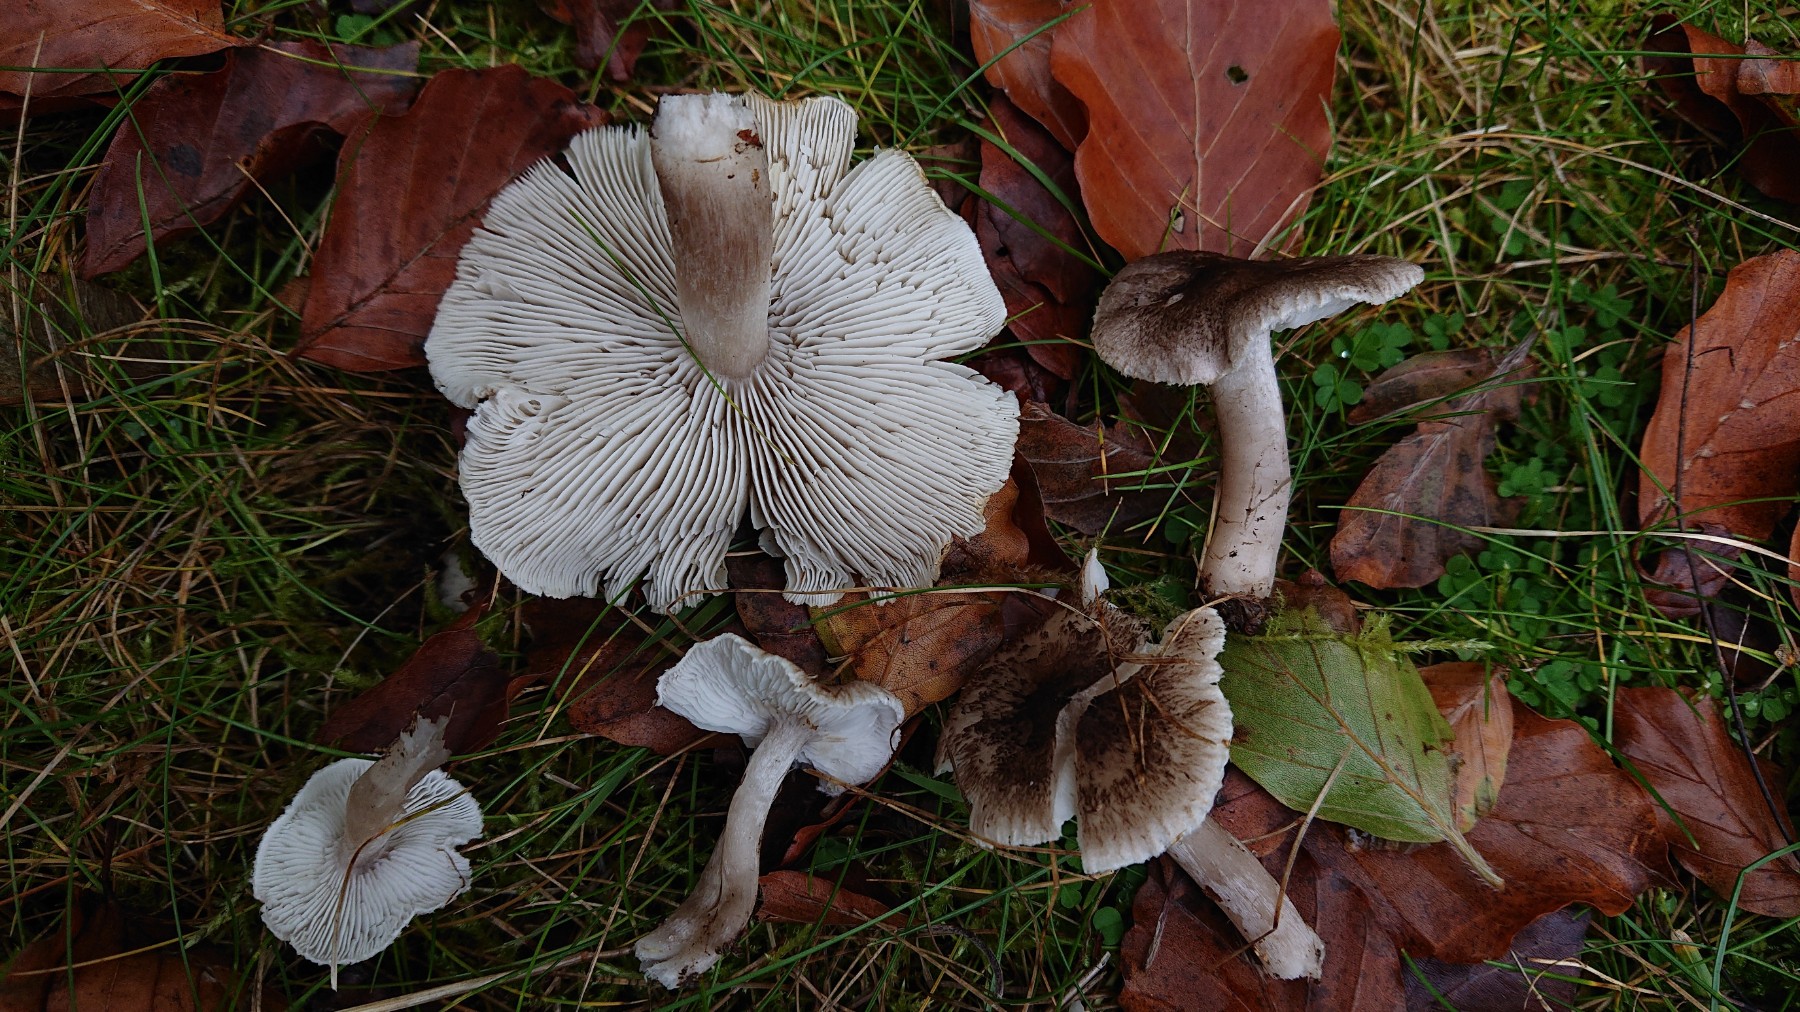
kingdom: Fungi
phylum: Basidiomycota
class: Agaricomycetes
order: Agaricales
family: Tricholomataceae
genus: Tricholoma
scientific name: Tricholoma scalpturatum
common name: gulplettet ridderhat
